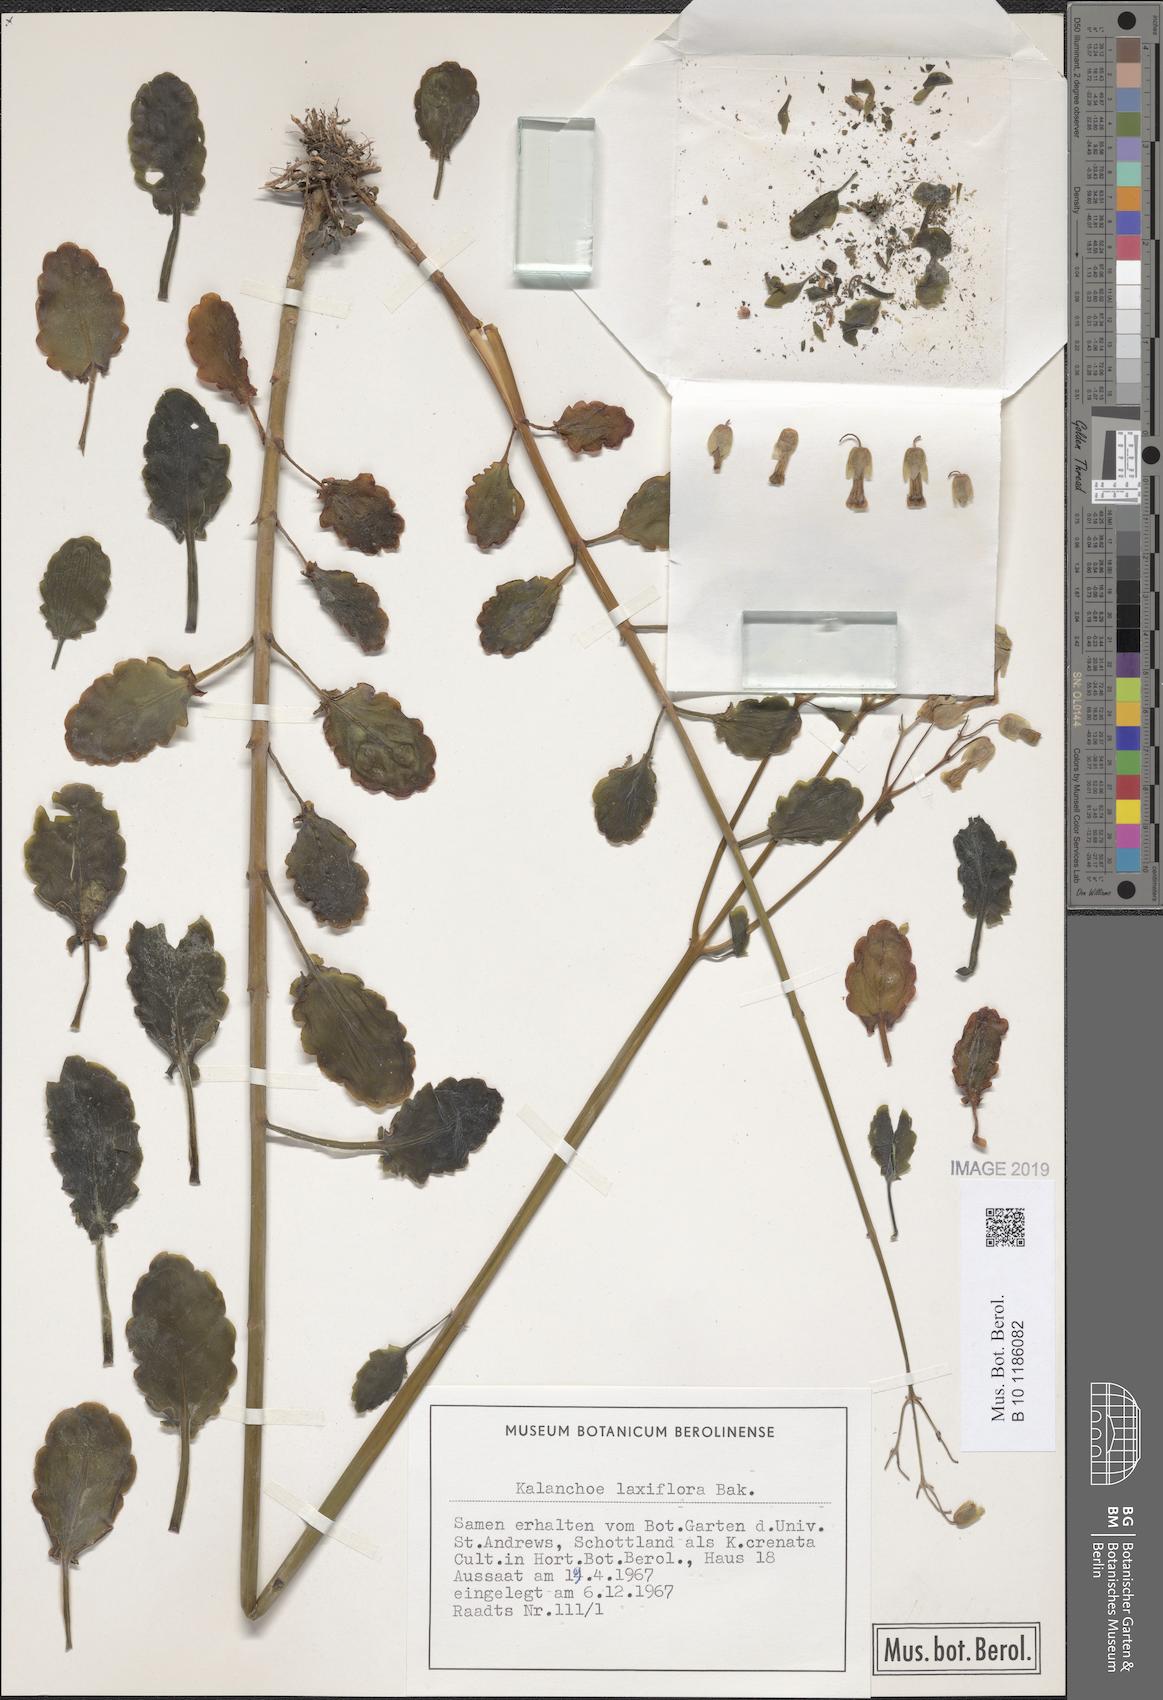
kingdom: Plantae
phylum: Tracheophyta
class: Magnoliopsida
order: Saxifragales
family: Crassulaceae
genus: Kalanchoe
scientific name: Kalanchoe laxiflora
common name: Milky widow's thrill
